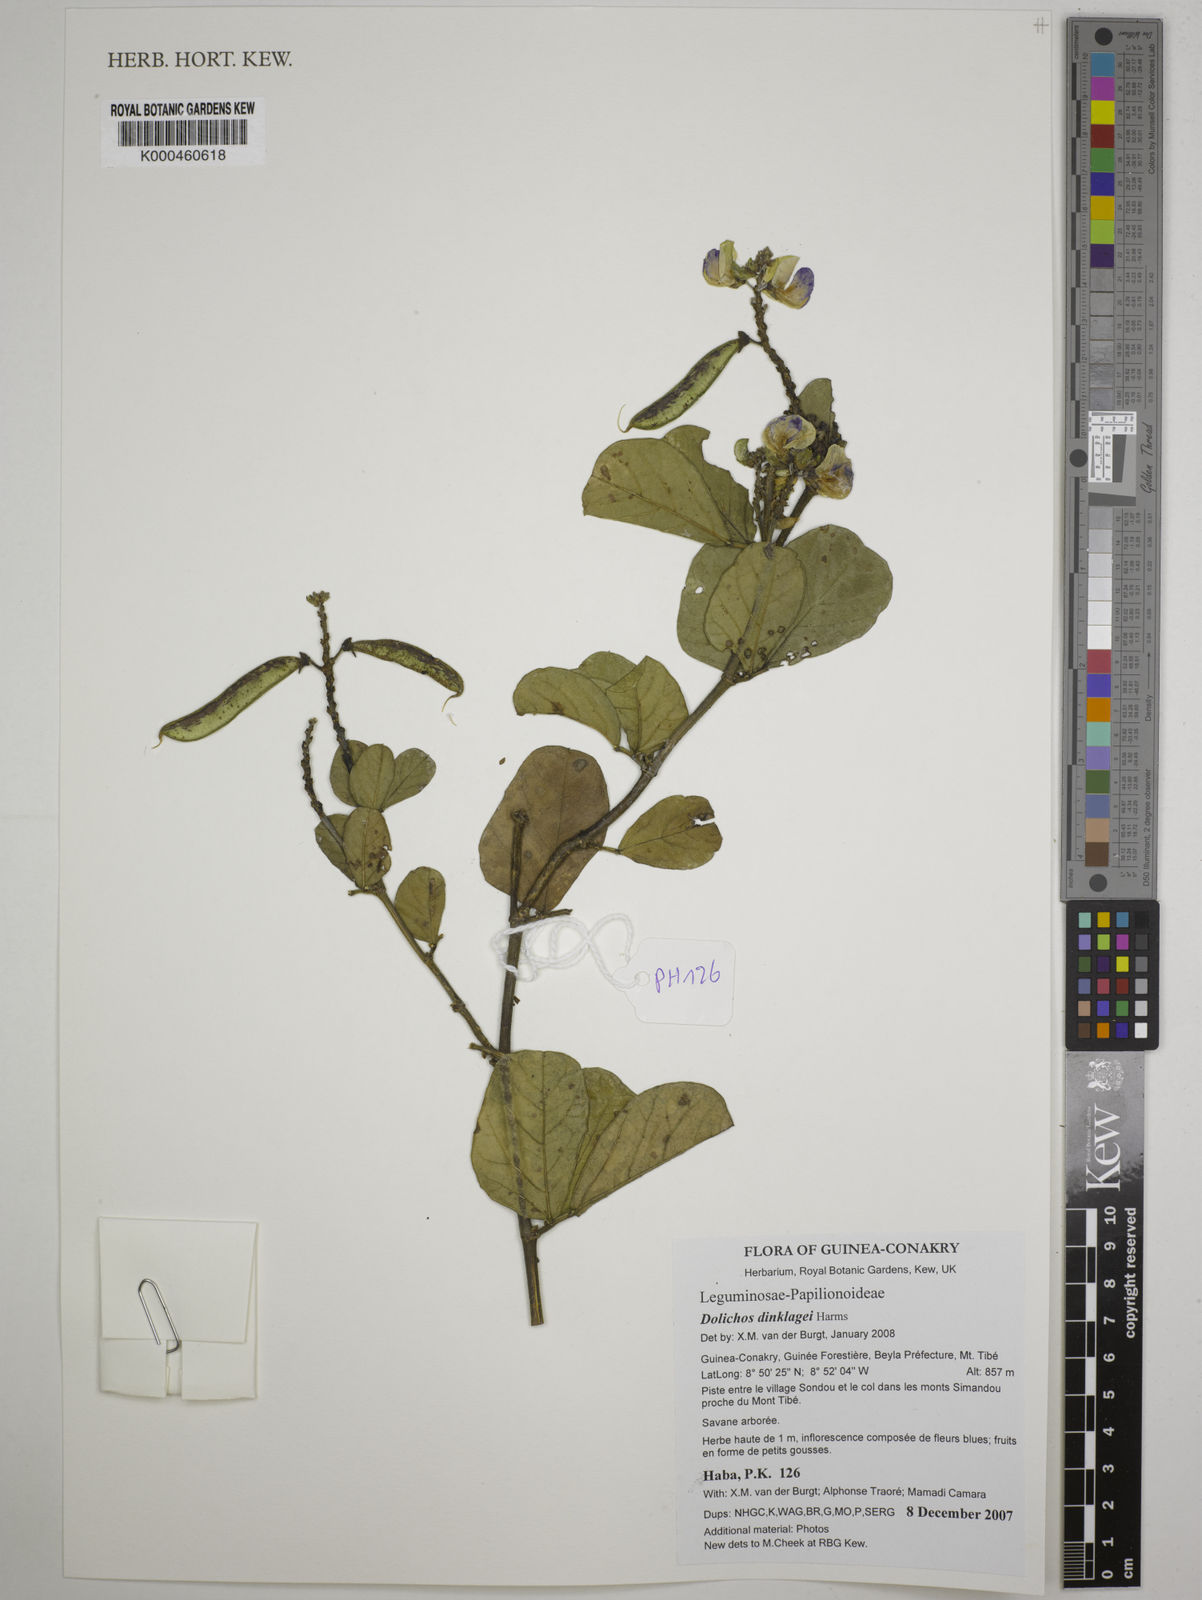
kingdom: Plantae
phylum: Tracheophyta
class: Magnoliopsida
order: Fabales
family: Fabaceae
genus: Dolichos
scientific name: Dolichos dinklagei
